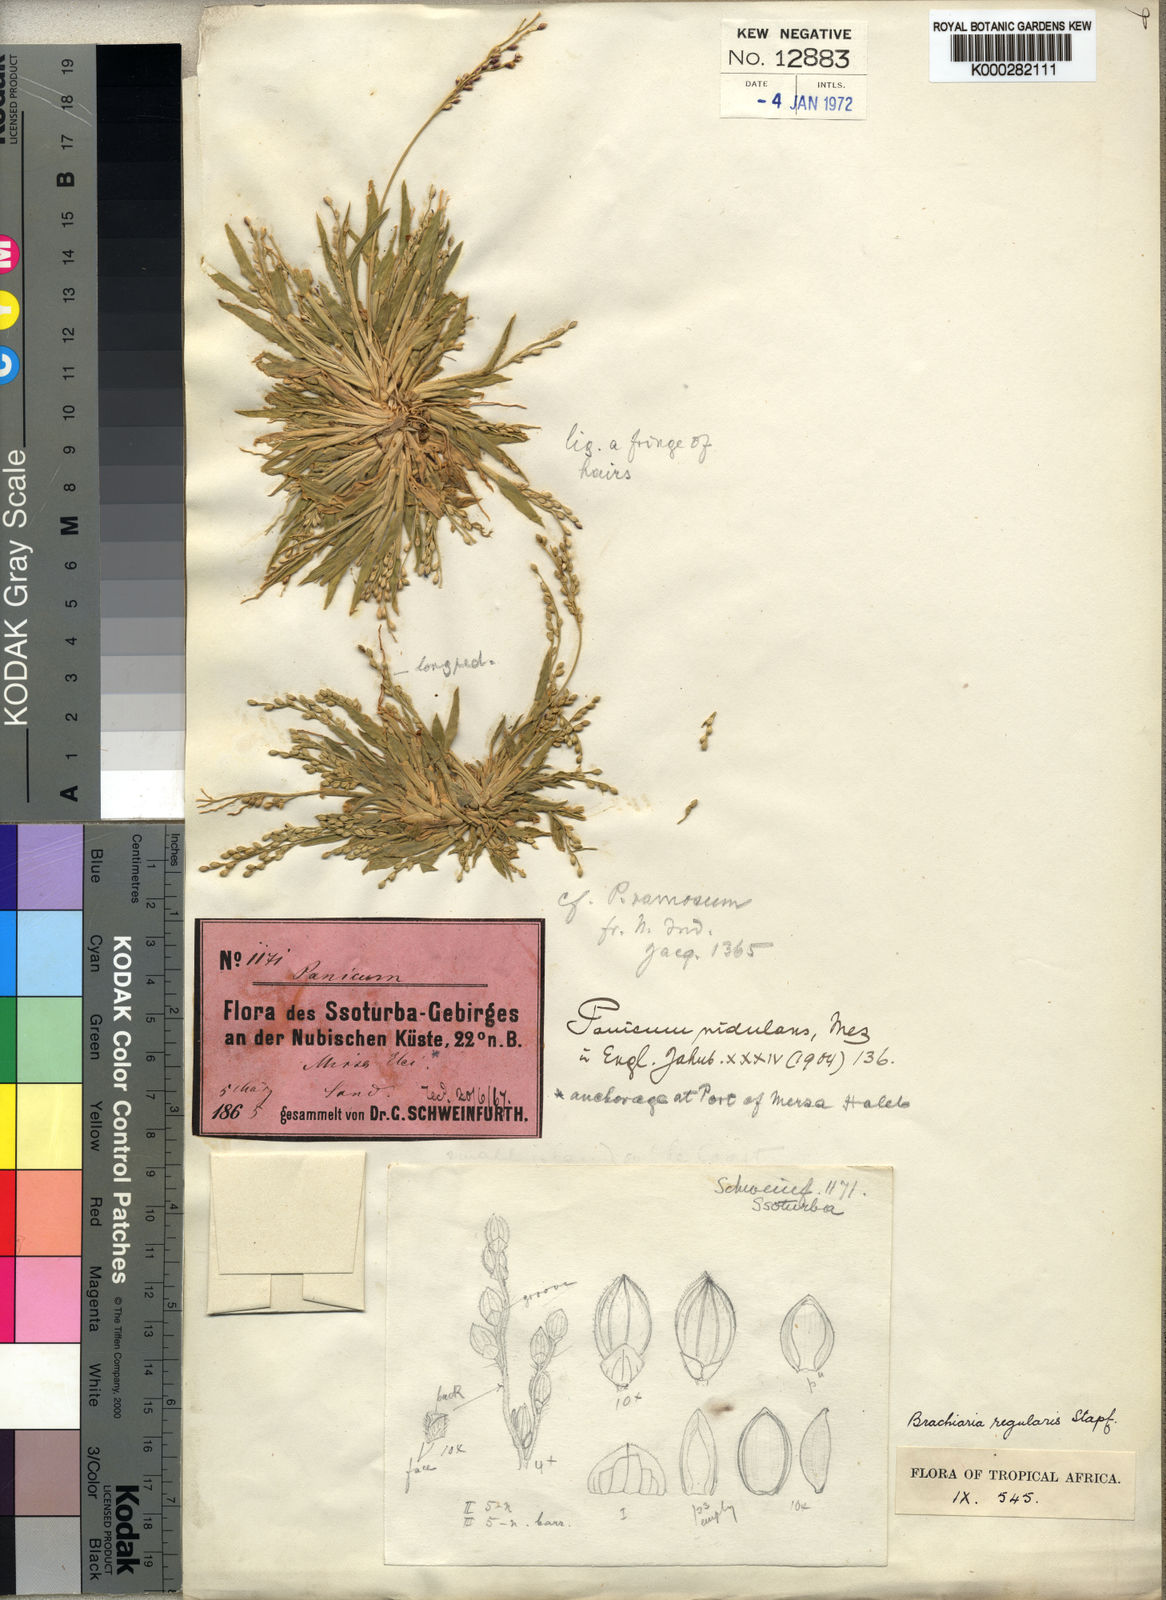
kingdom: Plantae
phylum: Tracheophyta
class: Liliopsida
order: Poales
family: Poaceae
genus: Urochloa
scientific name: Urochloa ramosa
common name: Browntop millet
